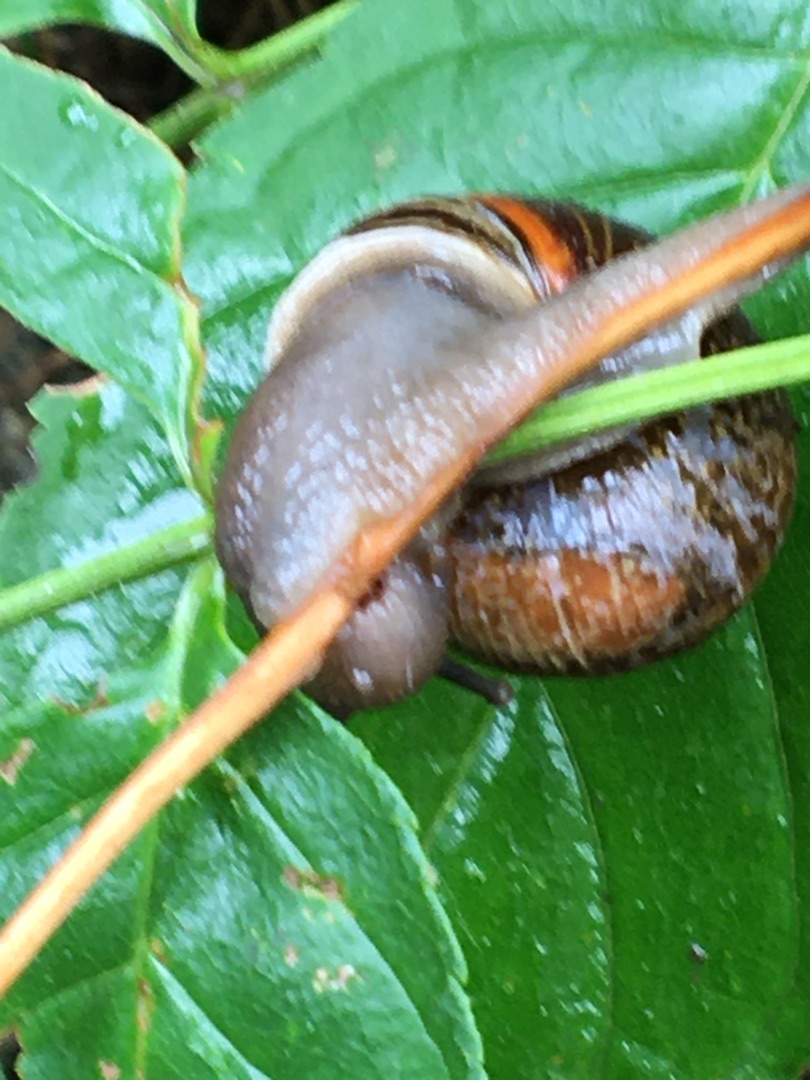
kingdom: Animalia
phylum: Mollusca
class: Gastropoda
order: Stylommatophora
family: Helicidae
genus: Arianta
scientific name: Arianta arbustorum
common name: Kratsnegl
